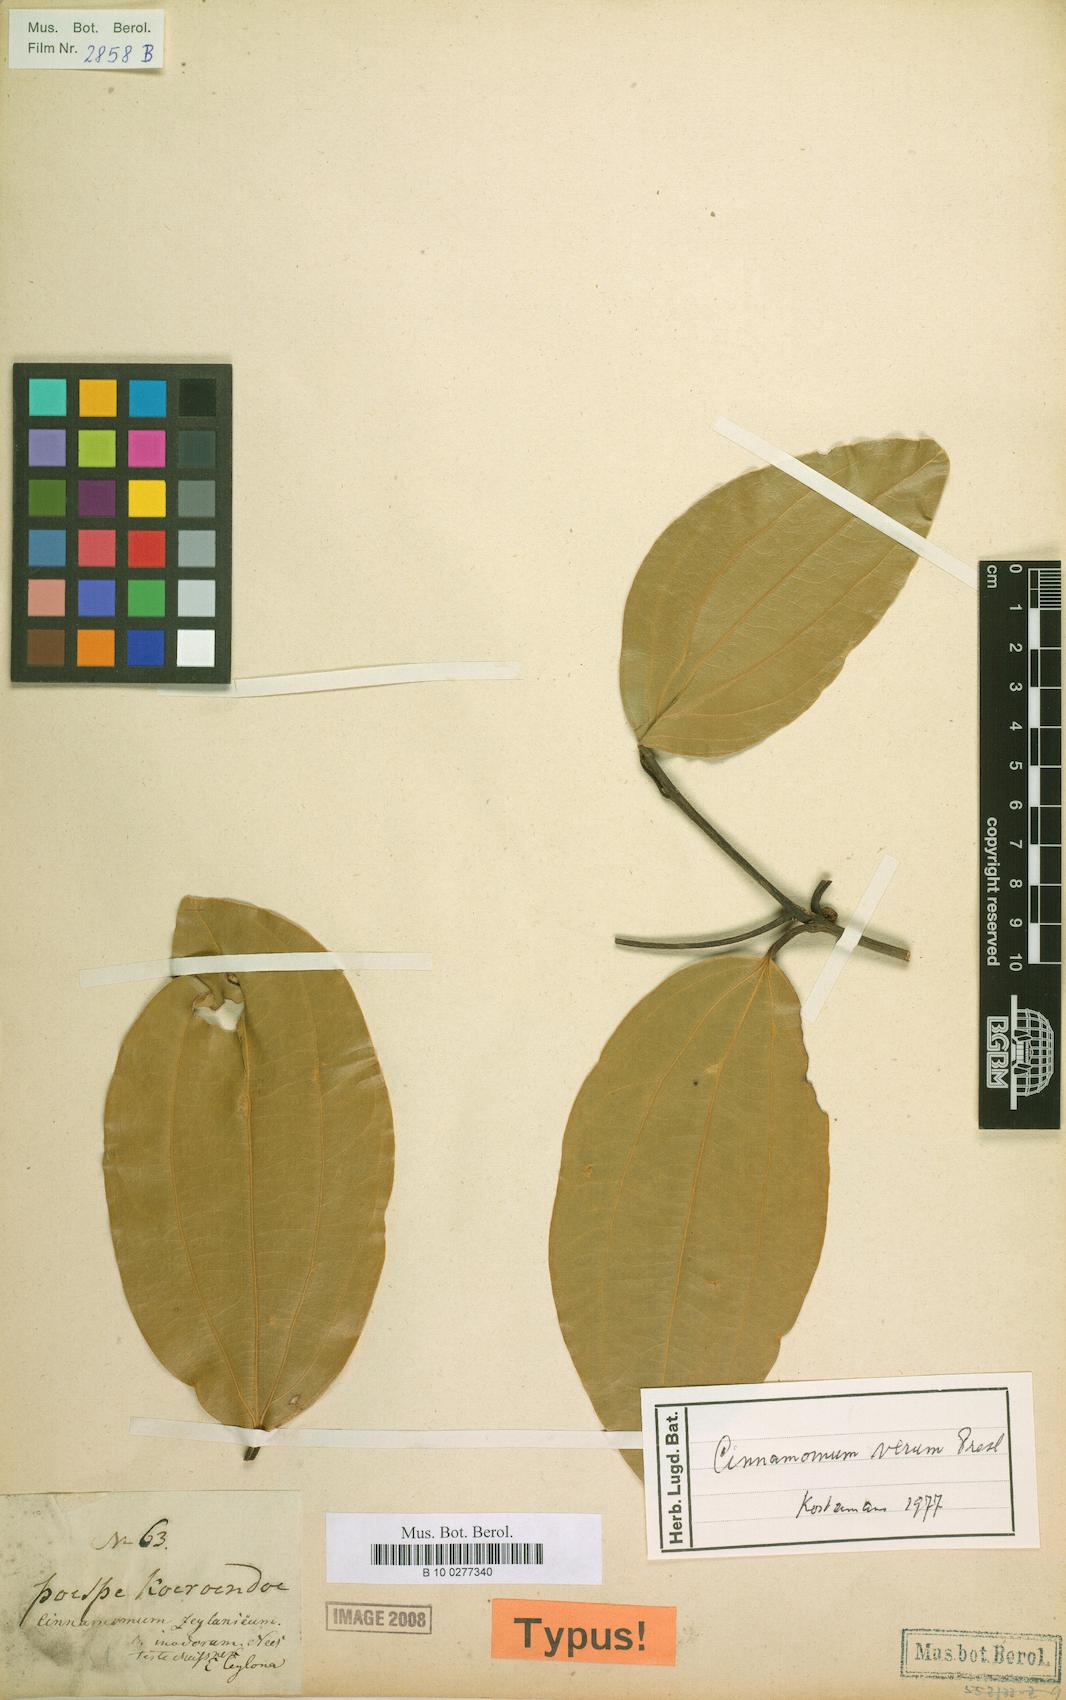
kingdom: Plantae
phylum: Tracheophyta
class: Magnoliopsida
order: Laurales
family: Lauraceae
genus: Cinnamomum
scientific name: Cinnamomum verum
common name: Cinnamon
